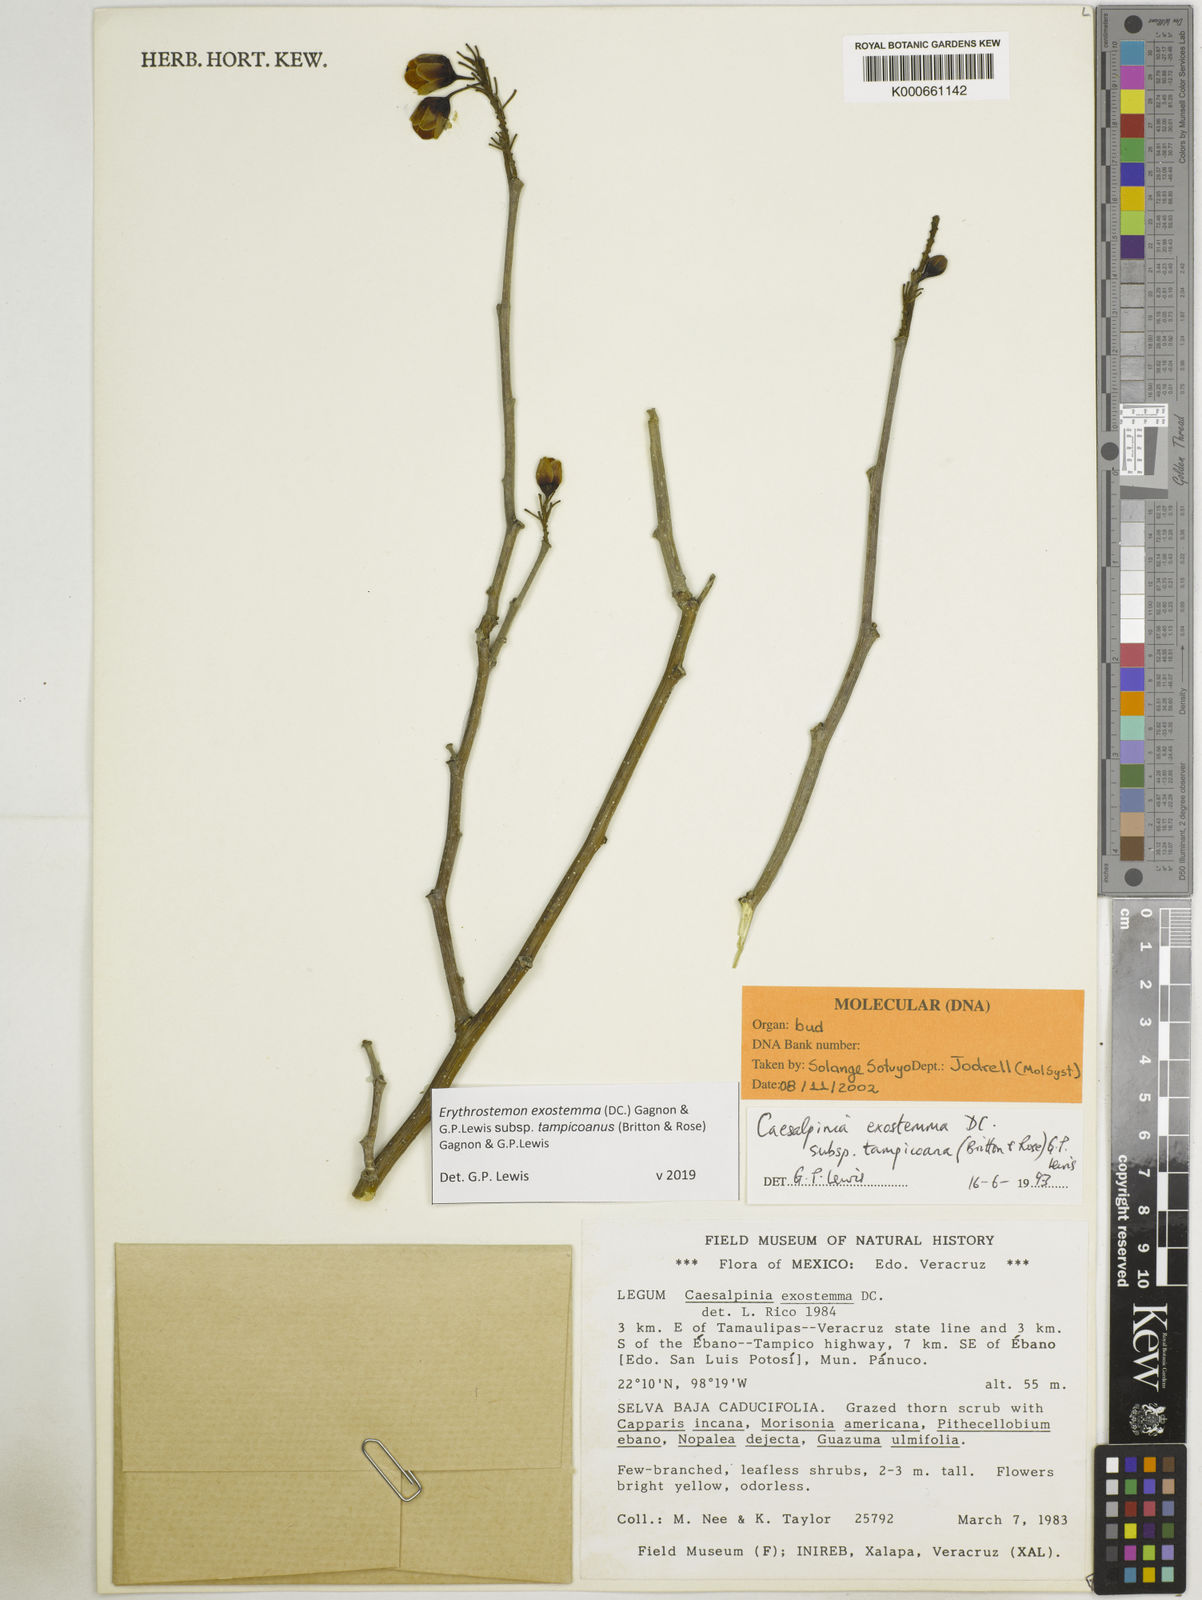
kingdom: Plantae
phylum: Tracheophyta
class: Magnoliopsida
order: Fabales
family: Fabaceae
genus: Erythrostemon
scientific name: Erythrostemon exostemma
